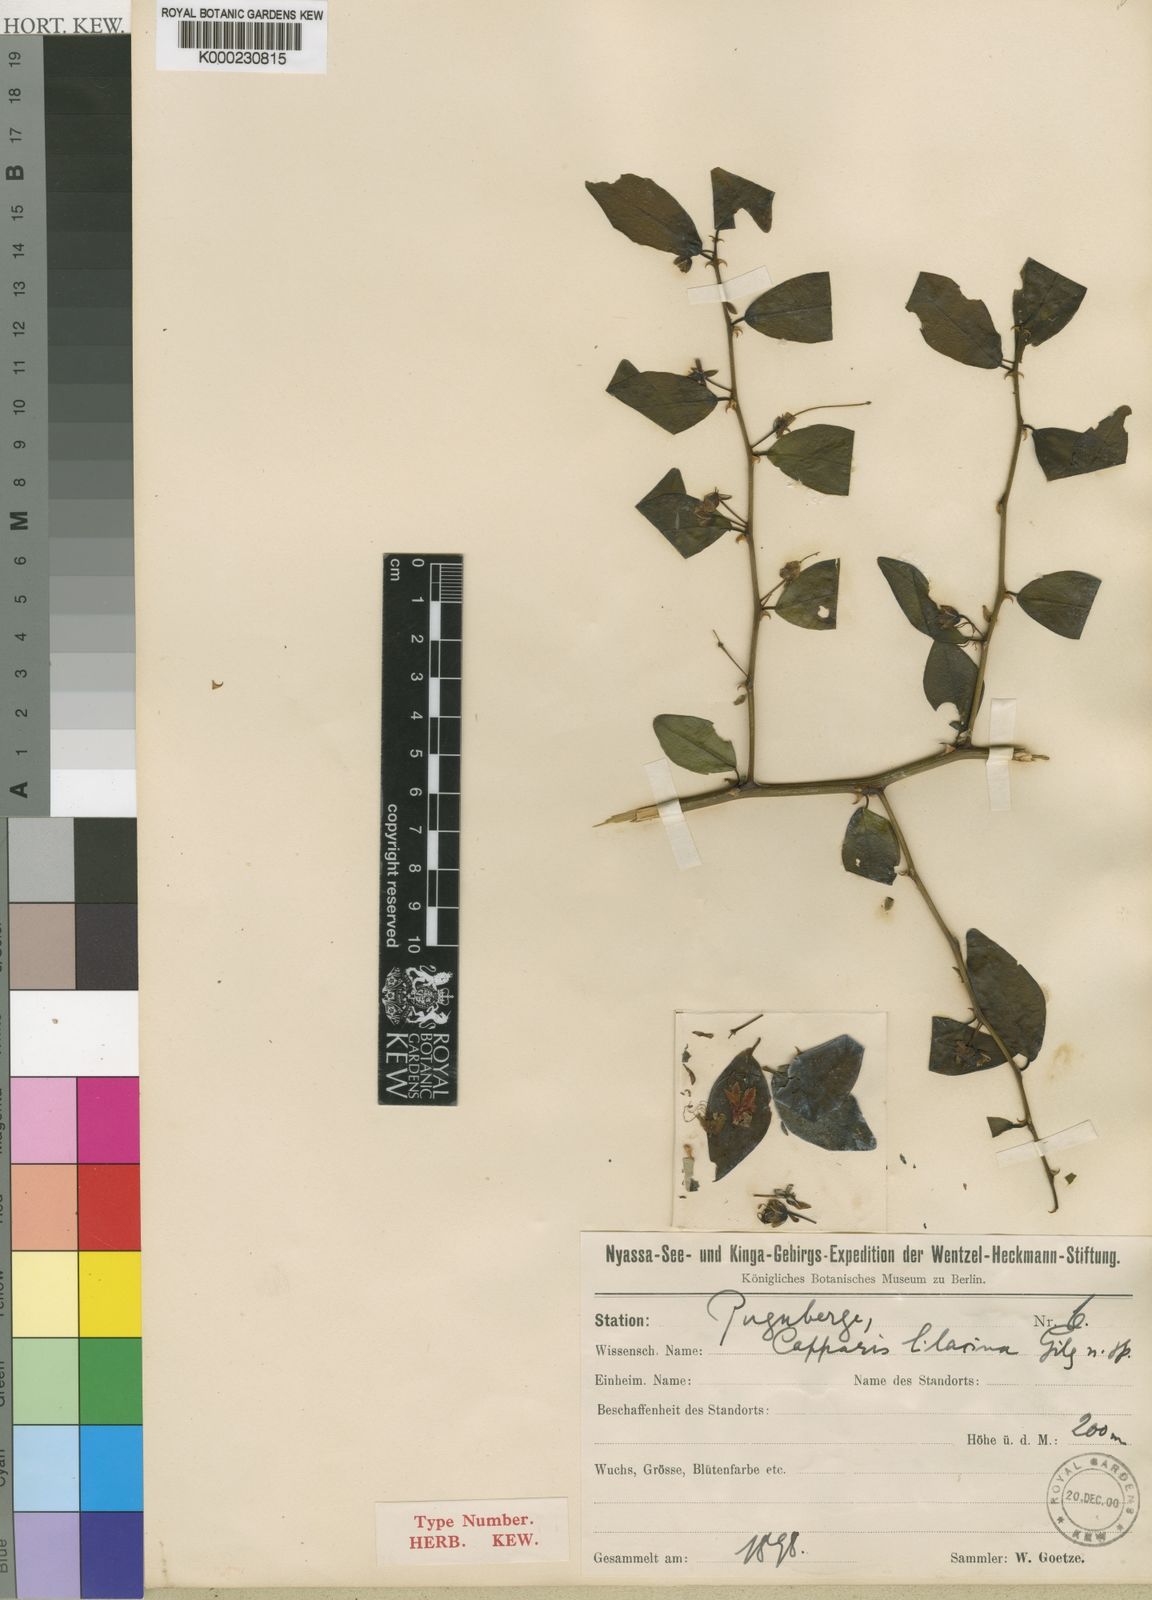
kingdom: Plantae
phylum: Tracheophyta
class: Magnoliopsida
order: Brassicales
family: Capparaceae
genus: Capparis
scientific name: Capparis viminea
